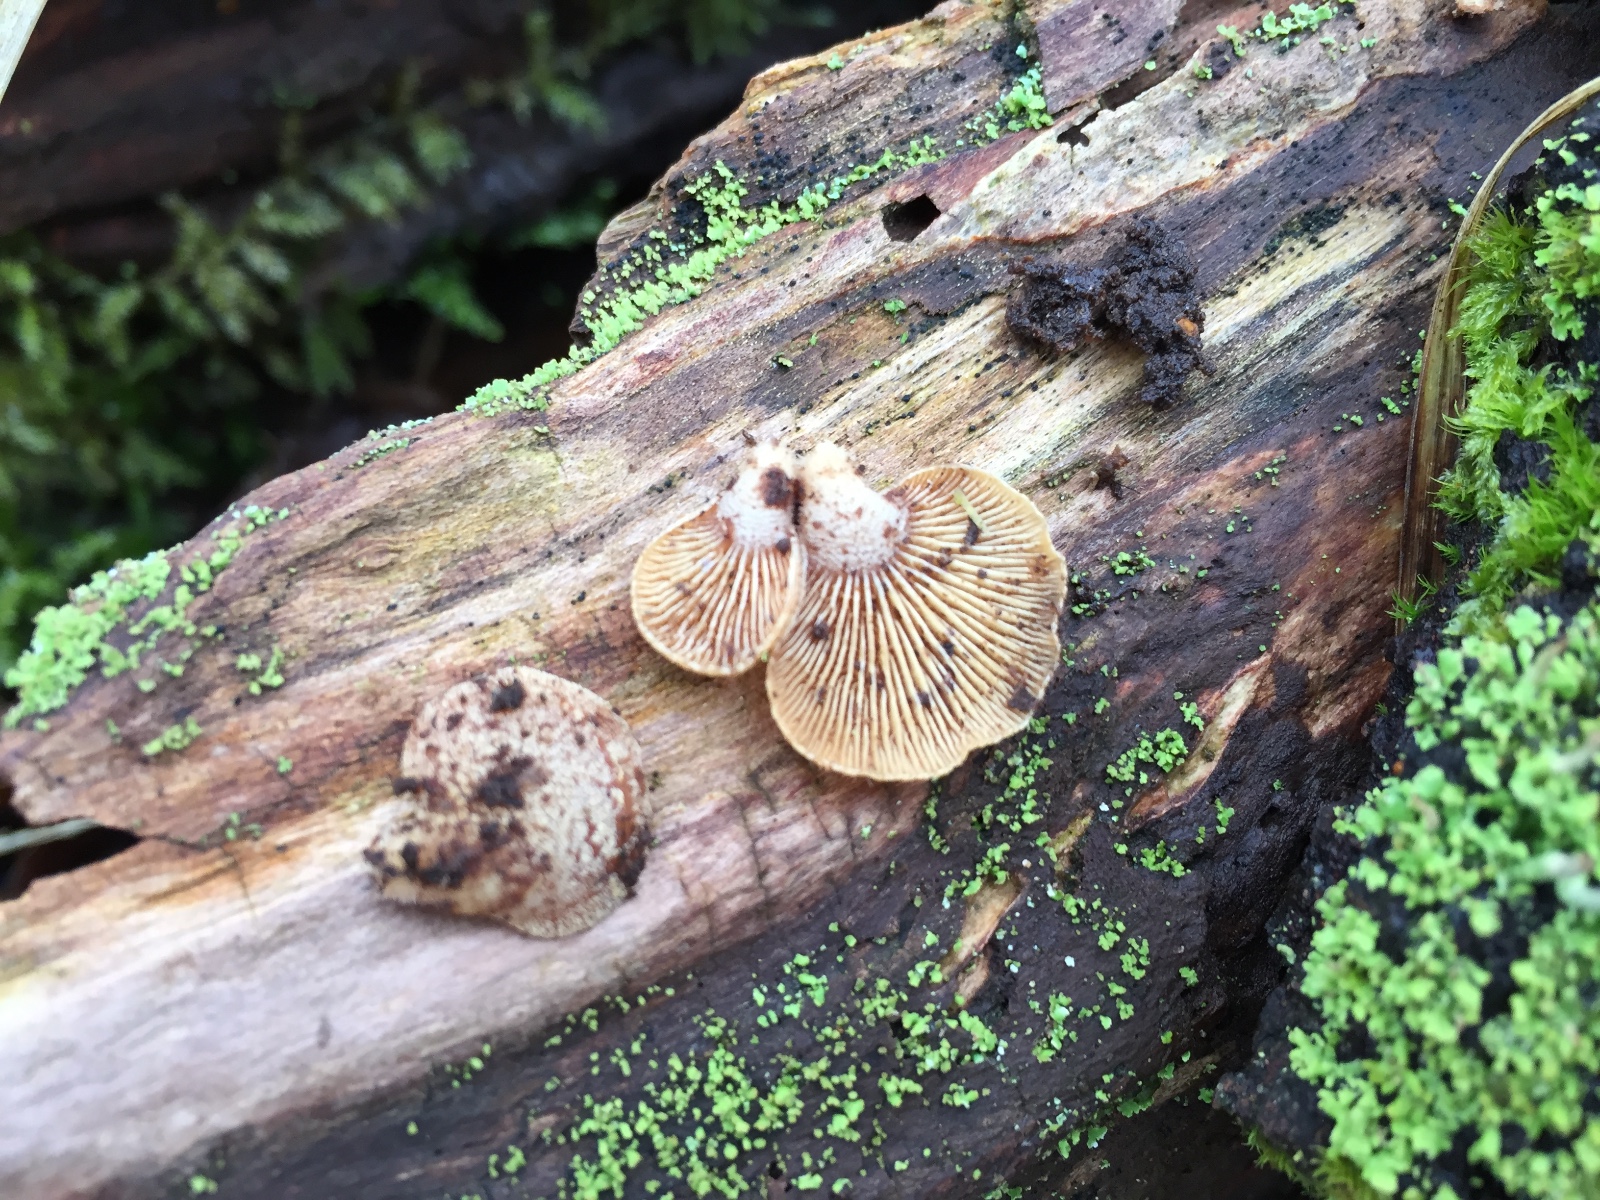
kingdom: Fungi
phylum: Basidiomycota
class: Agaricomycetes
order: Agaricales
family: Mycenaceae
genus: Panellus
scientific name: Panellus stipticus
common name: kliddet epaulethat
